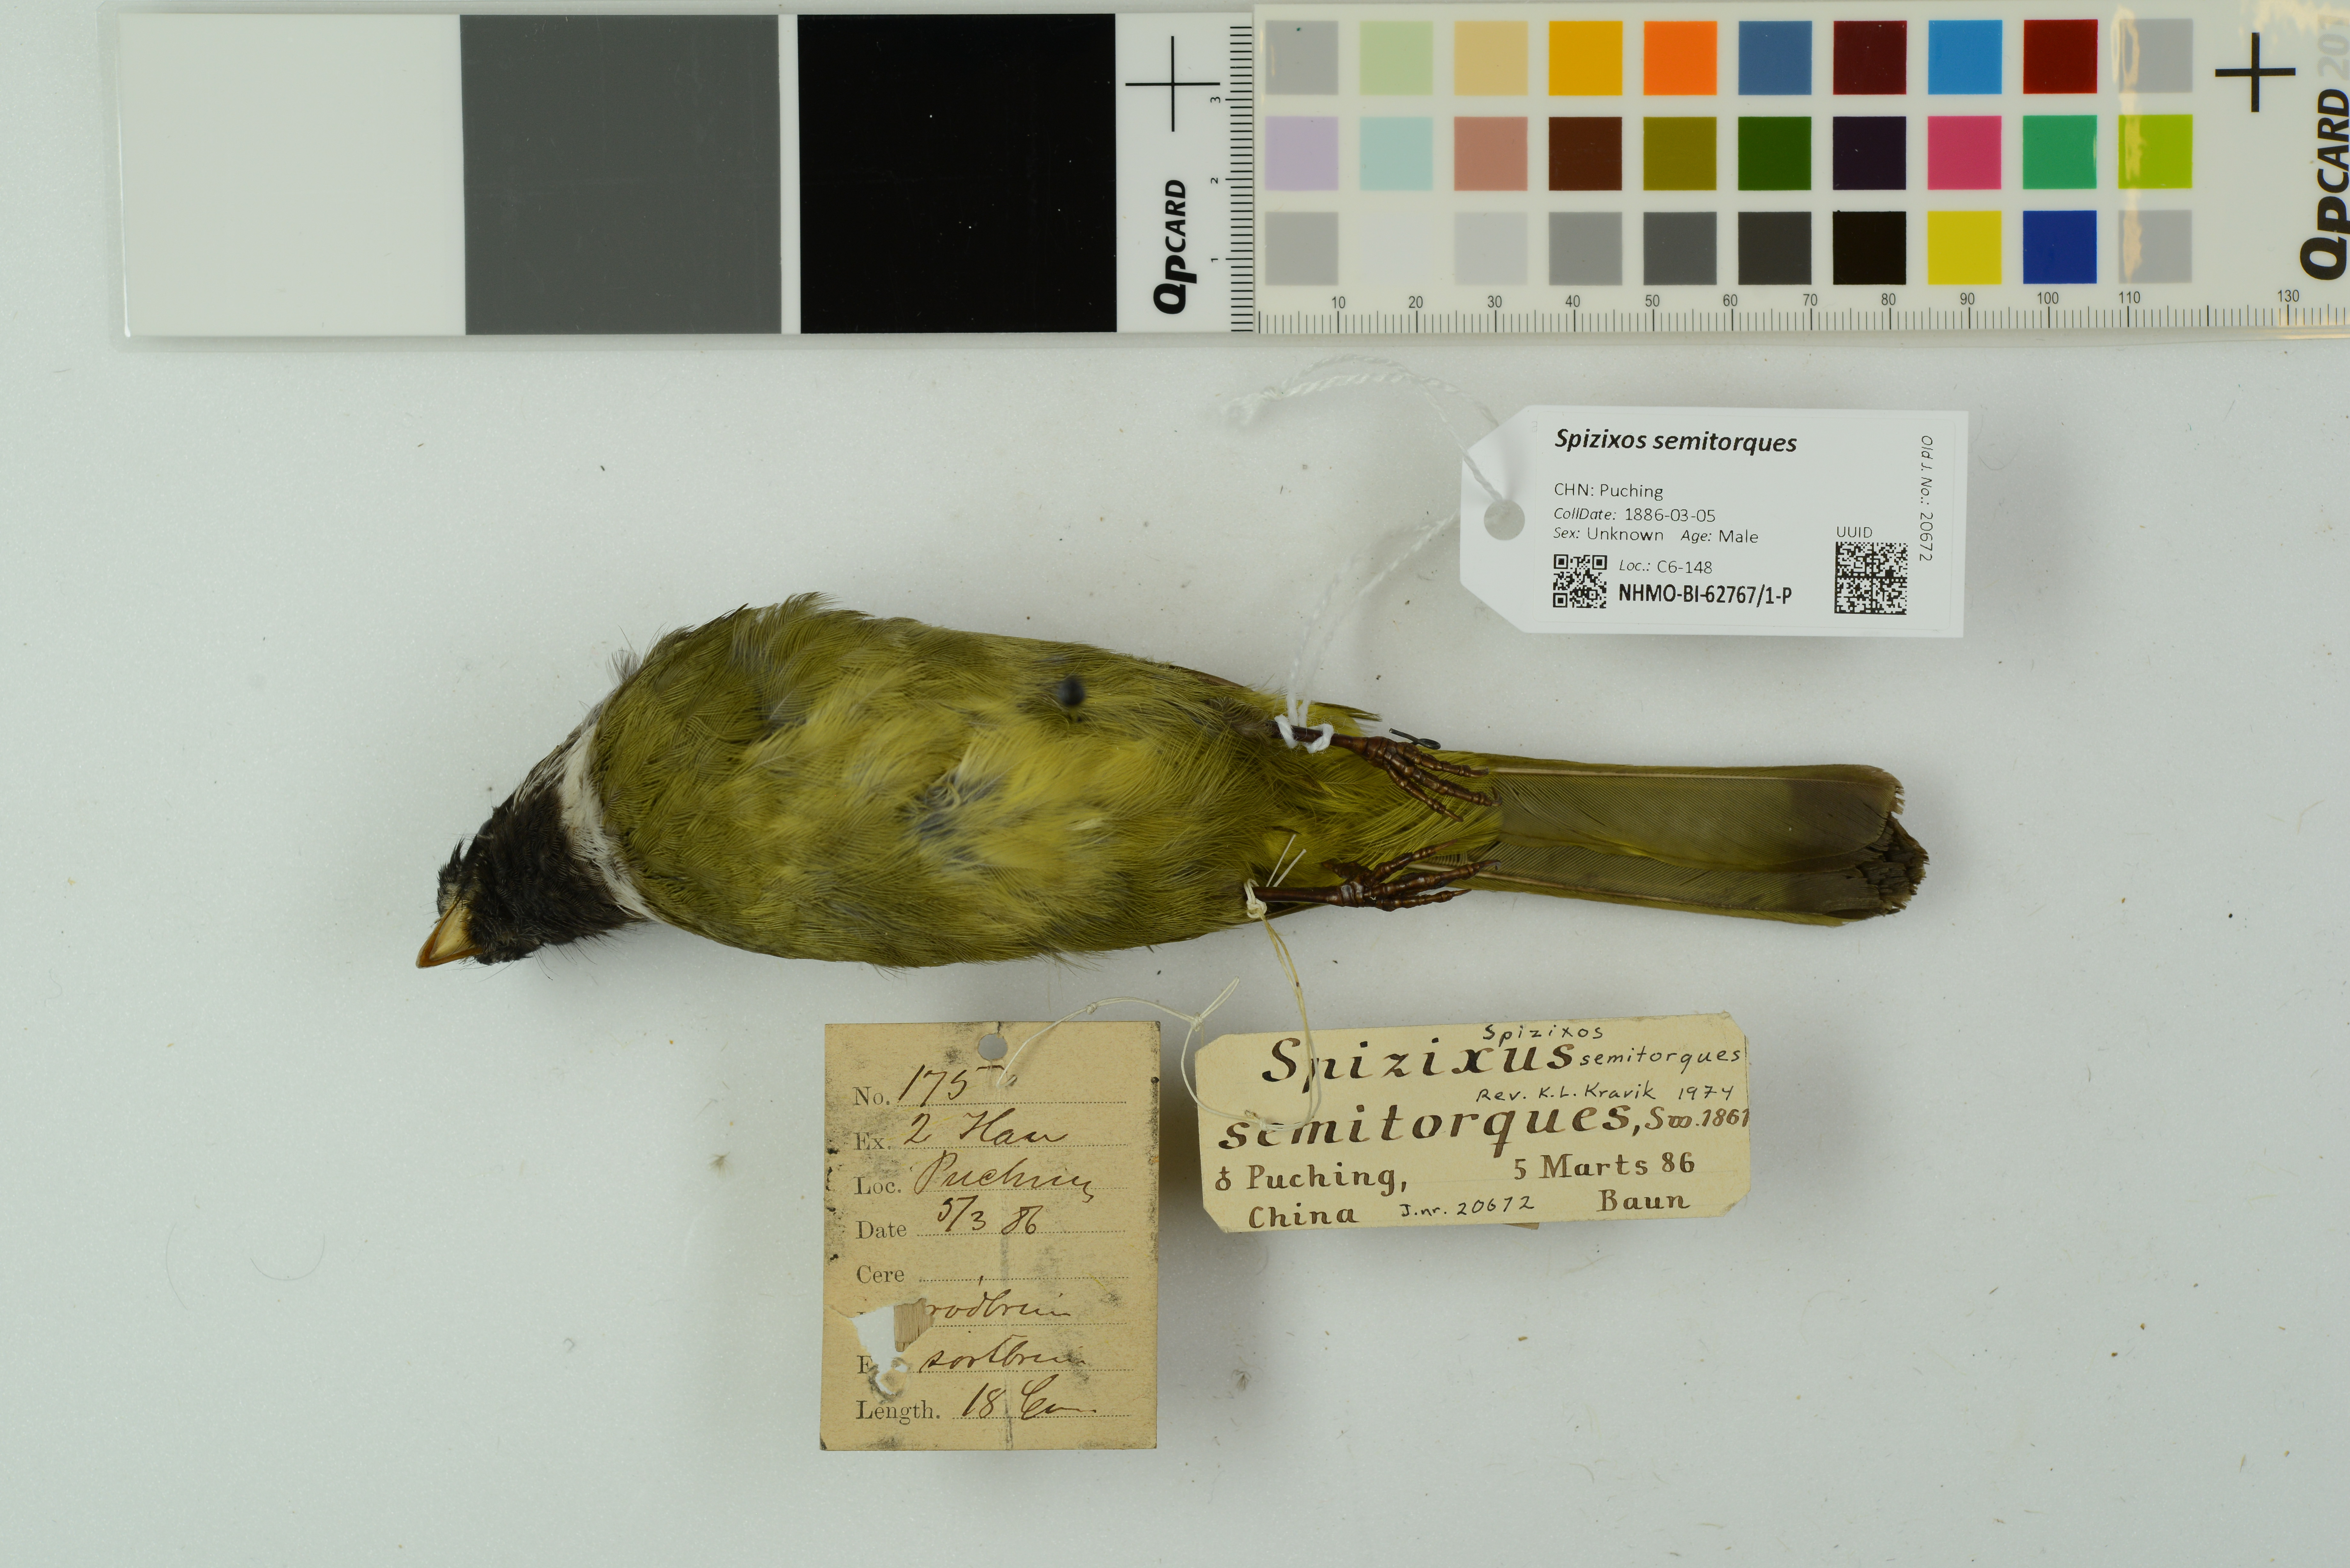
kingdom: Animalia
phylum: Chordata
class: Aves
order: Passeriformes
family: Pycnonotidae
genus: Spizixos
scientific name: Spizixos semitorques
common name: Collared finchbill
